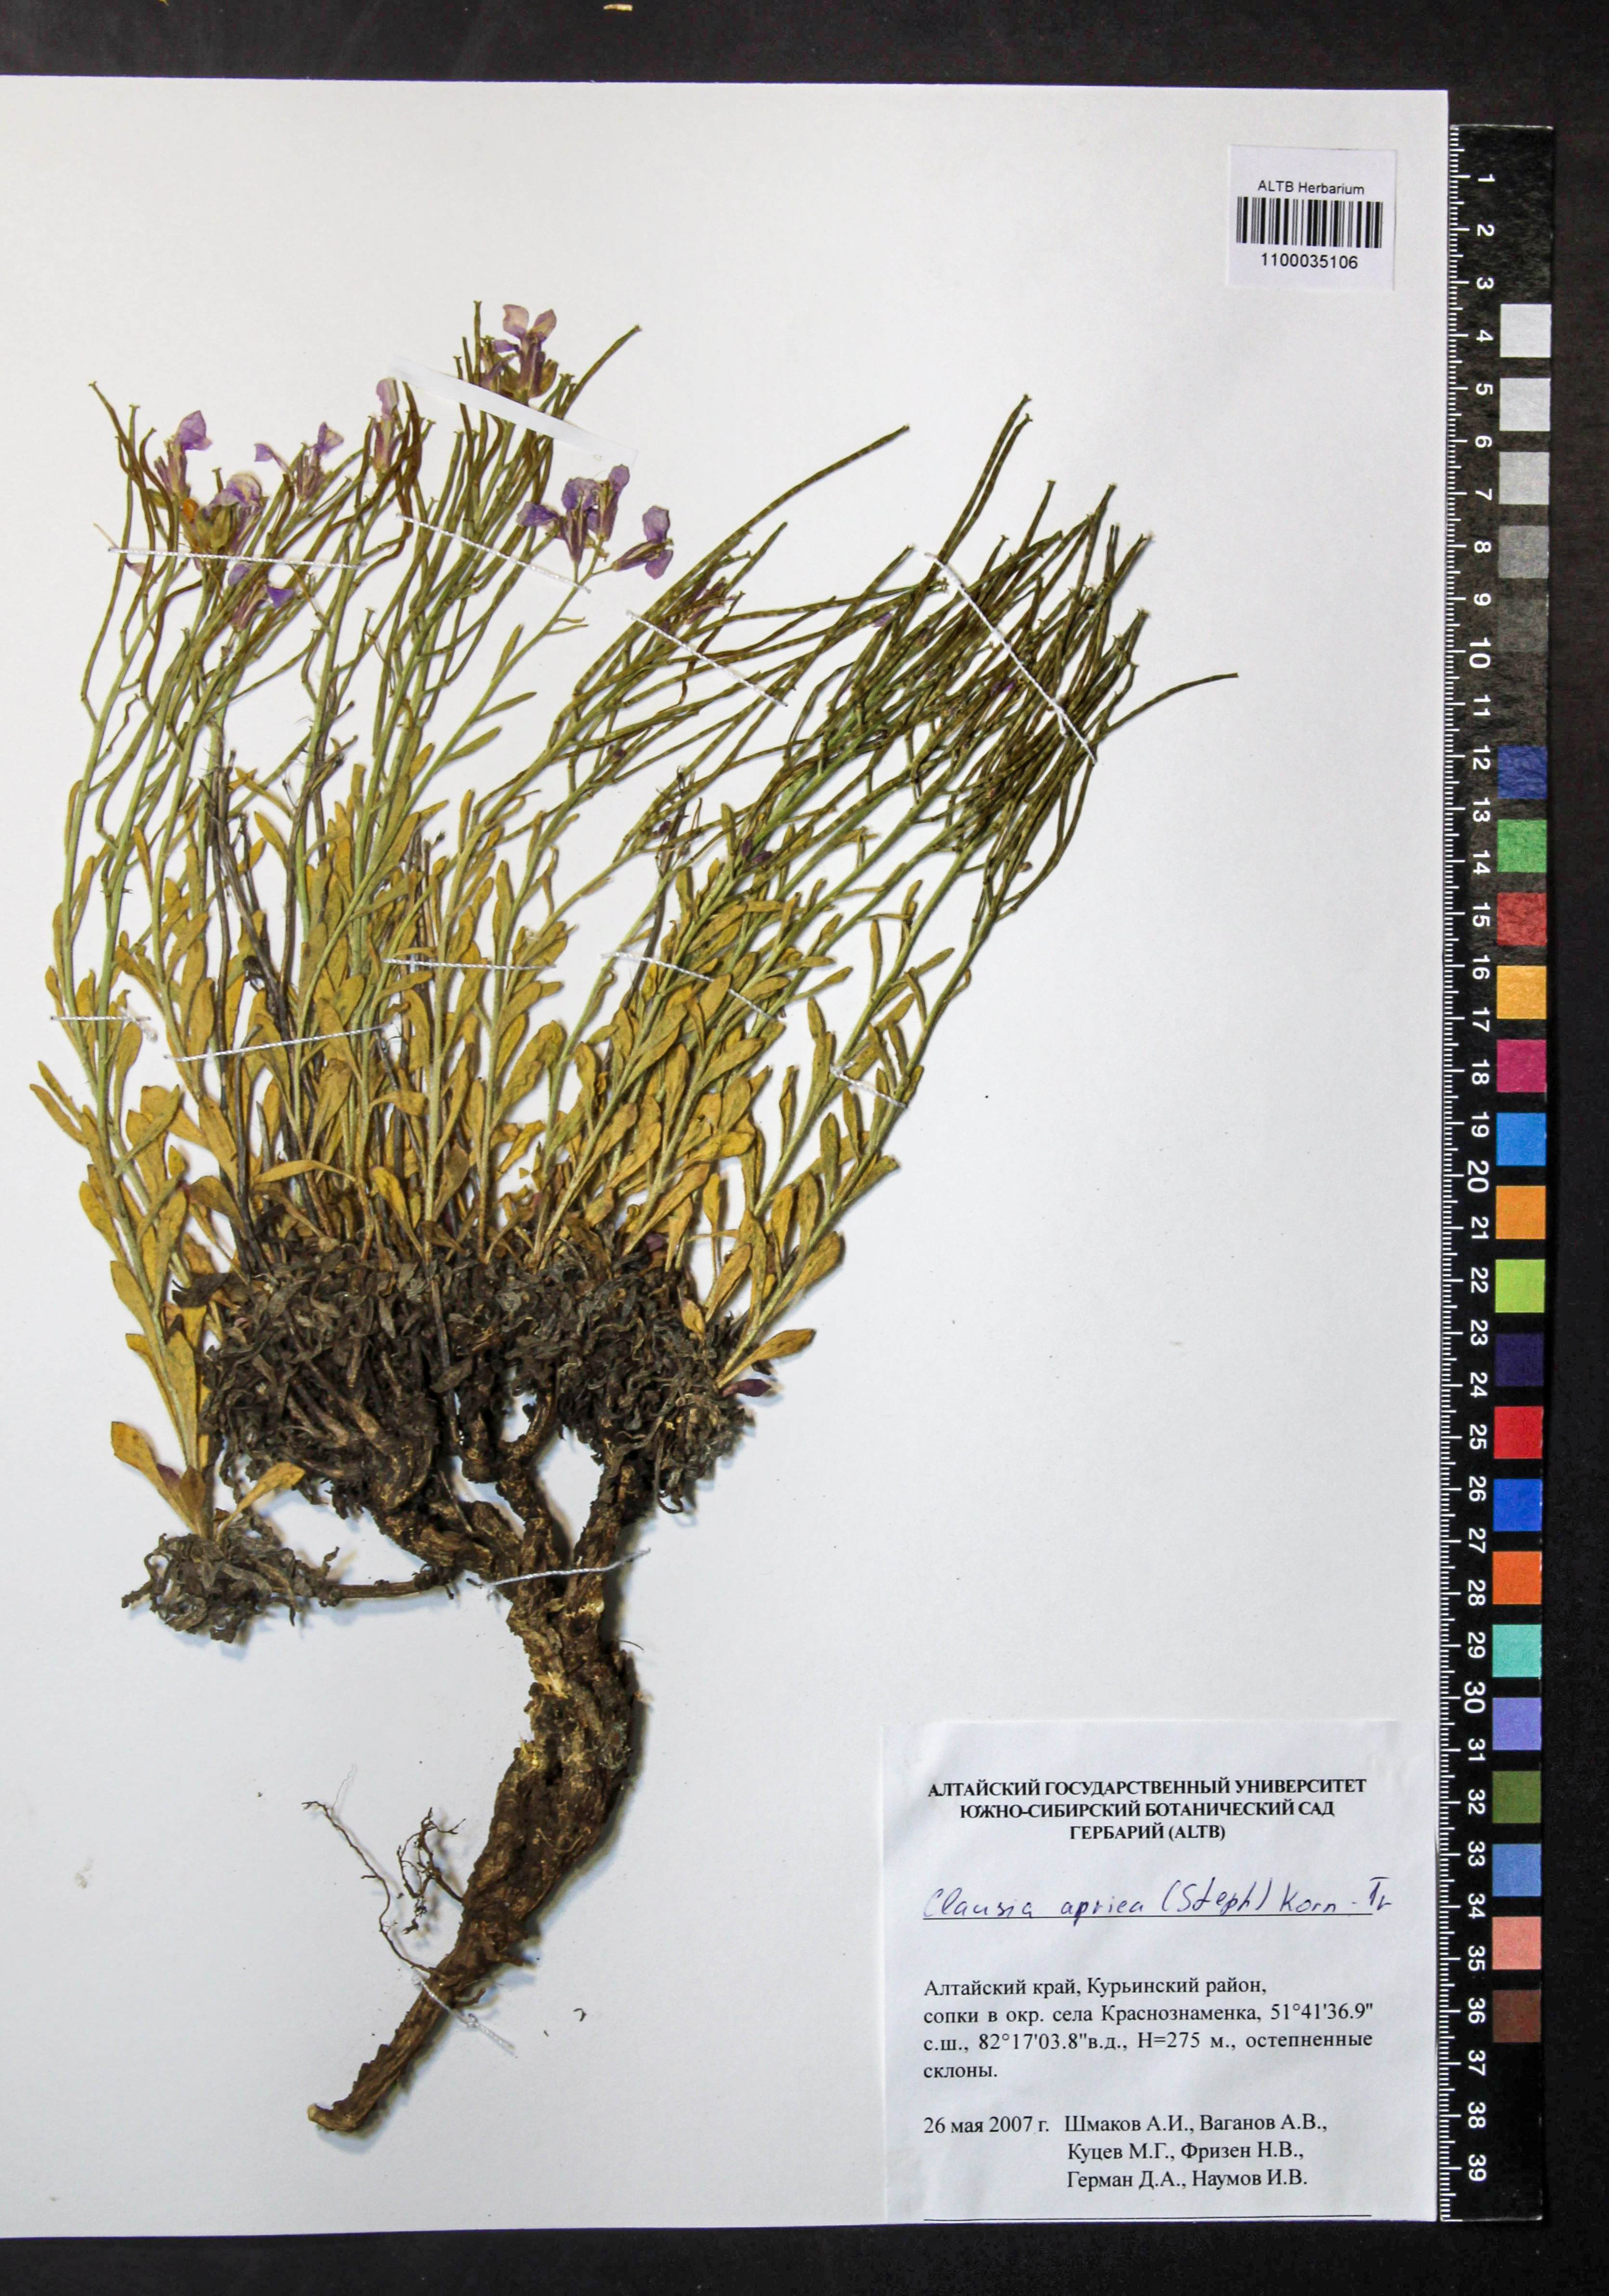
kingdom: Plantae
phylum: Tracheophyta
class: Magnoliopsida
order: Brassicales
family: Brassicaceae
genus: Clausia
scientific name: Clausia aprica
